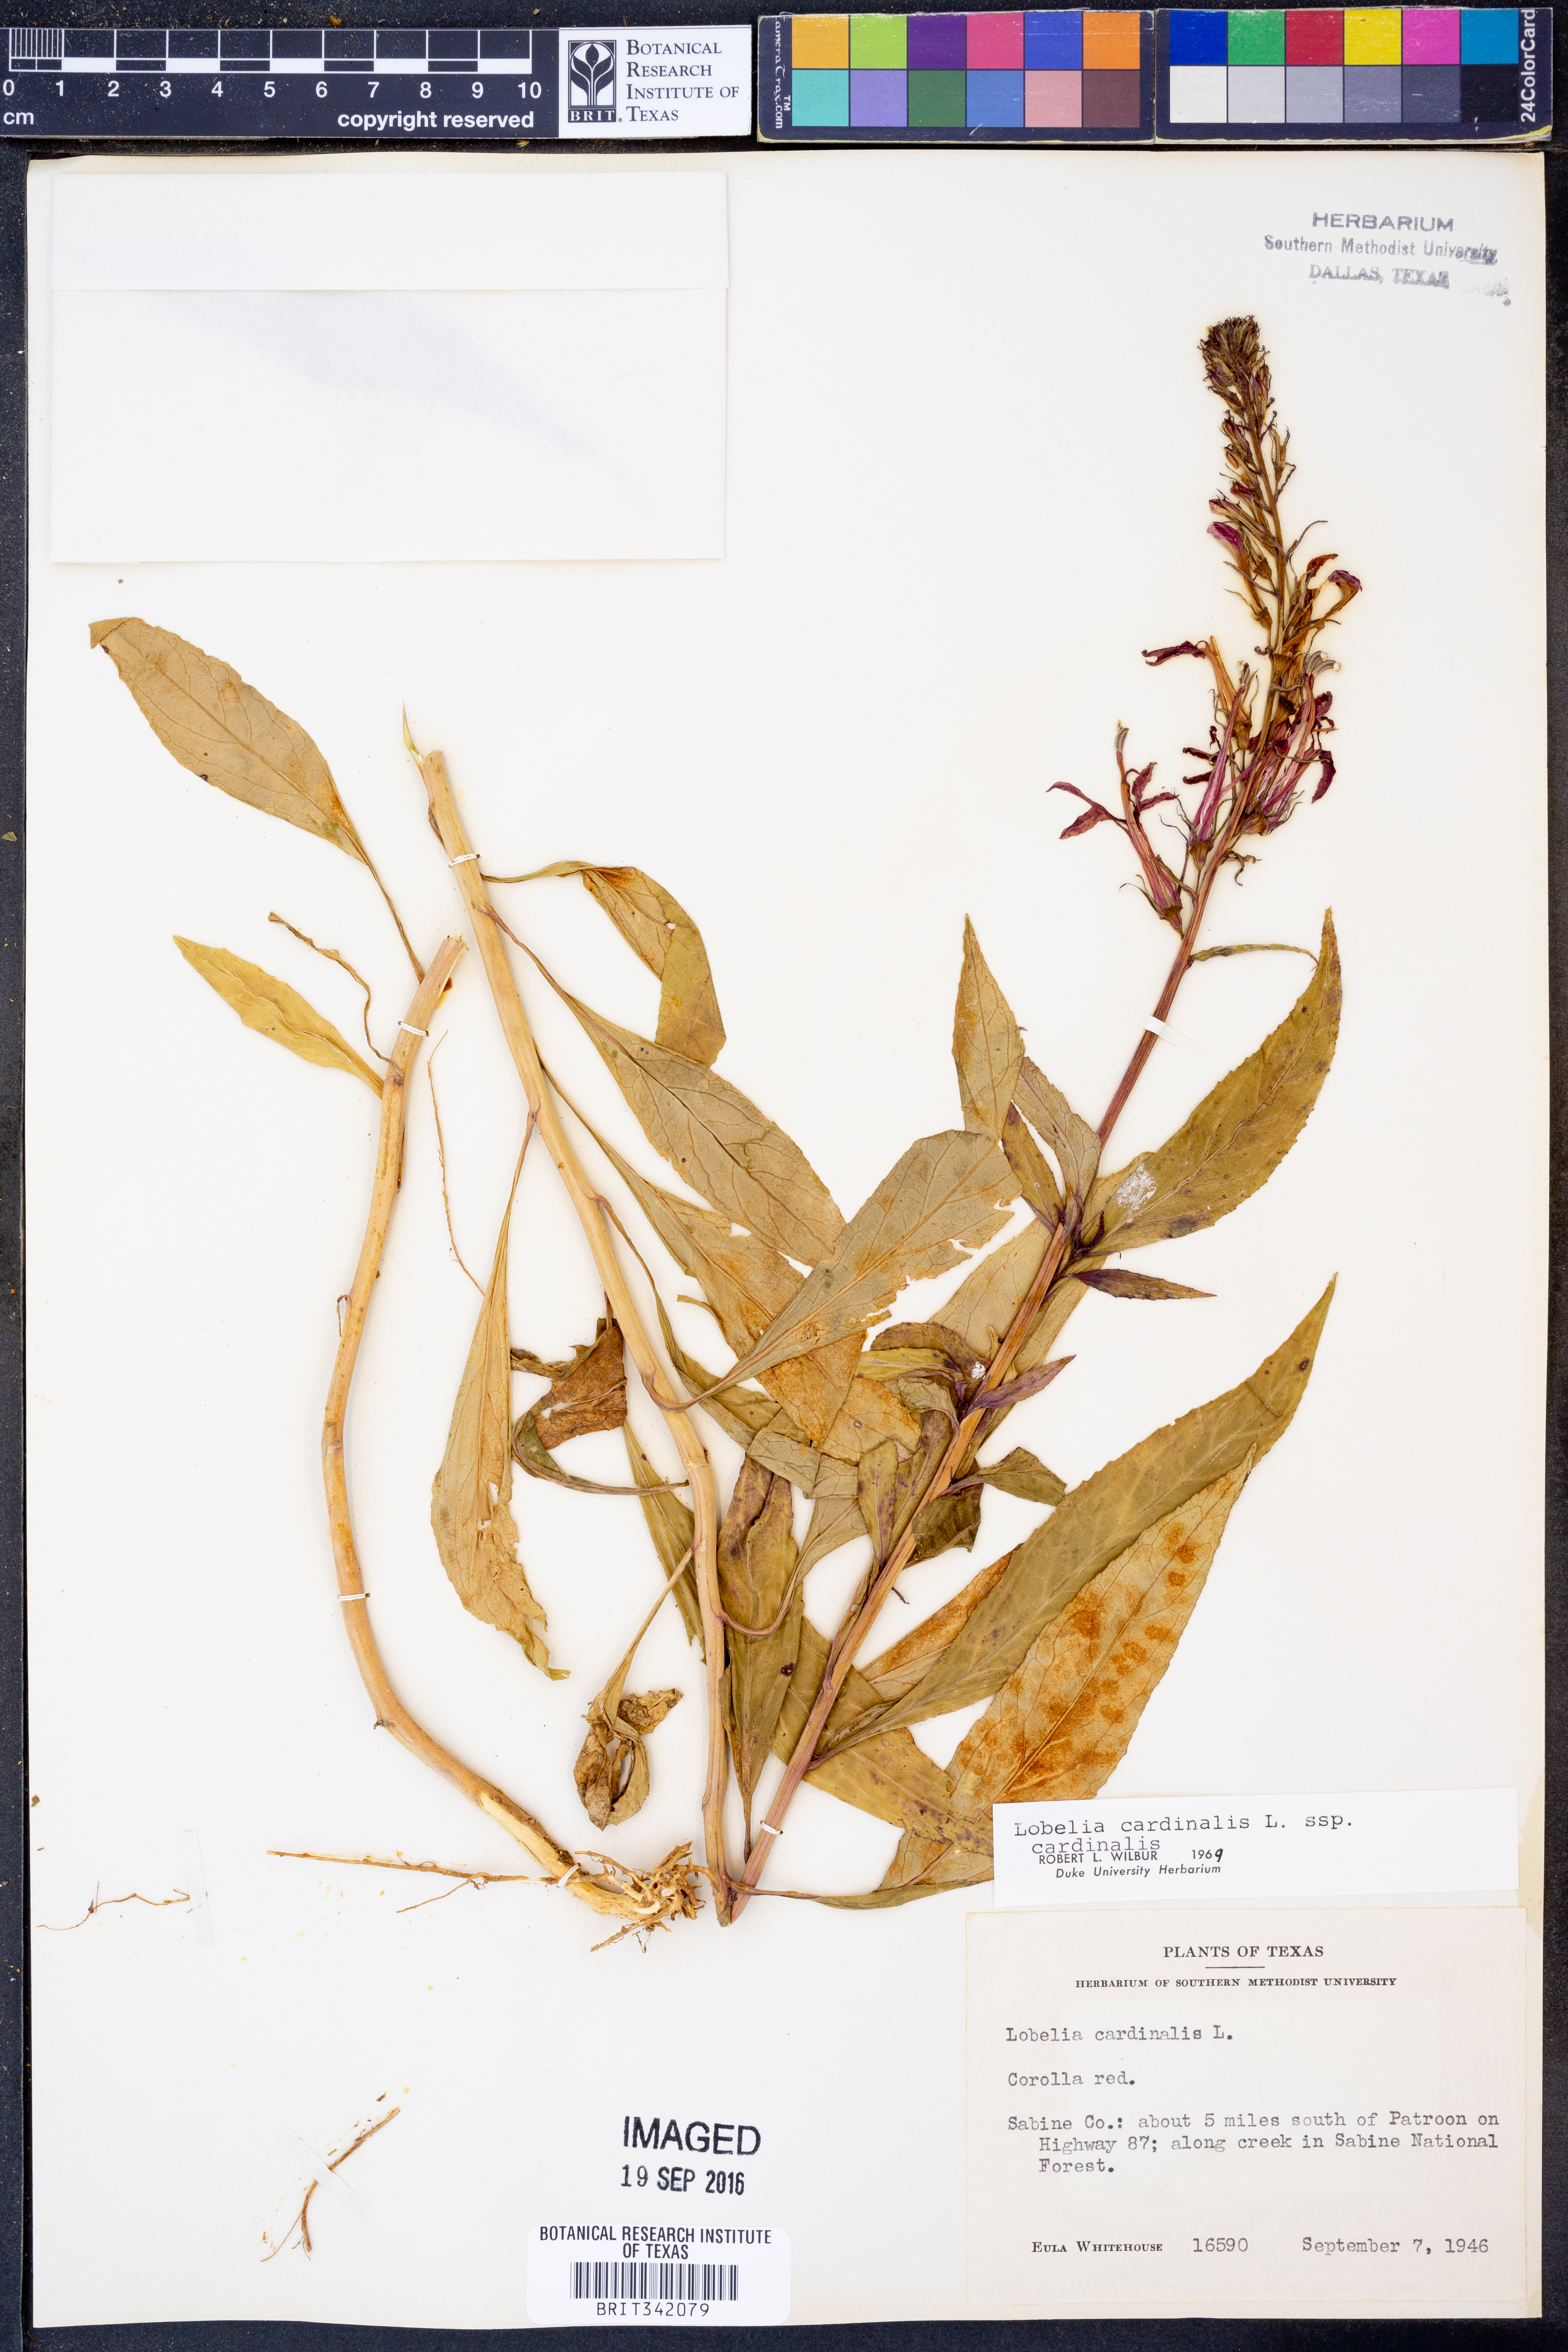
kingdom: Plantae
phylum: Tracheophyta
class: Magnoliopsida
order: Asterales
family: Campanulaceae
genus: Lobelia
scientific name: Lobelia cardinalis
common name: Cardinal flower
